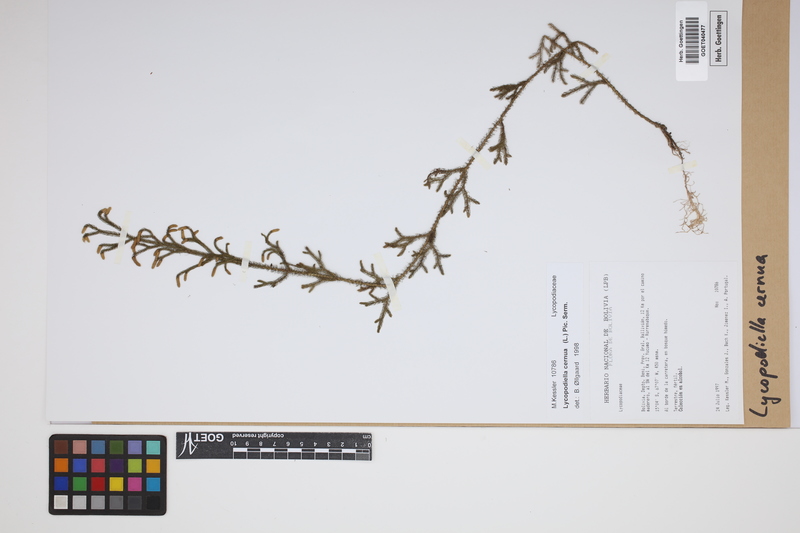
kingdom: Plantae
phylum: Tracheophyta
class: Lycopodiopsida
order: Lycopodiales
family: Lycopodiaceae
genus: Palhinhaea
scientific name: Palhinhaea cernua
